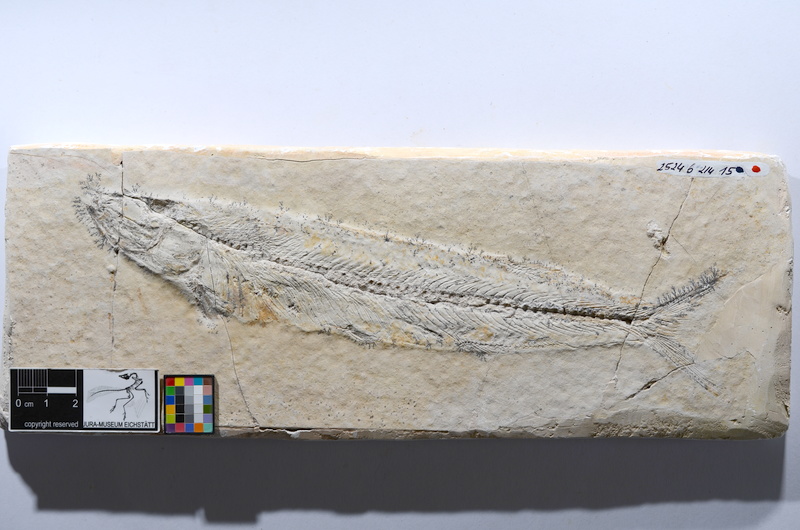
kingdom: Animalia
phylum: Chordata
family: Allothrissopidae
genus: Allothrissops
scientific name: Allothrissops mesogaster
